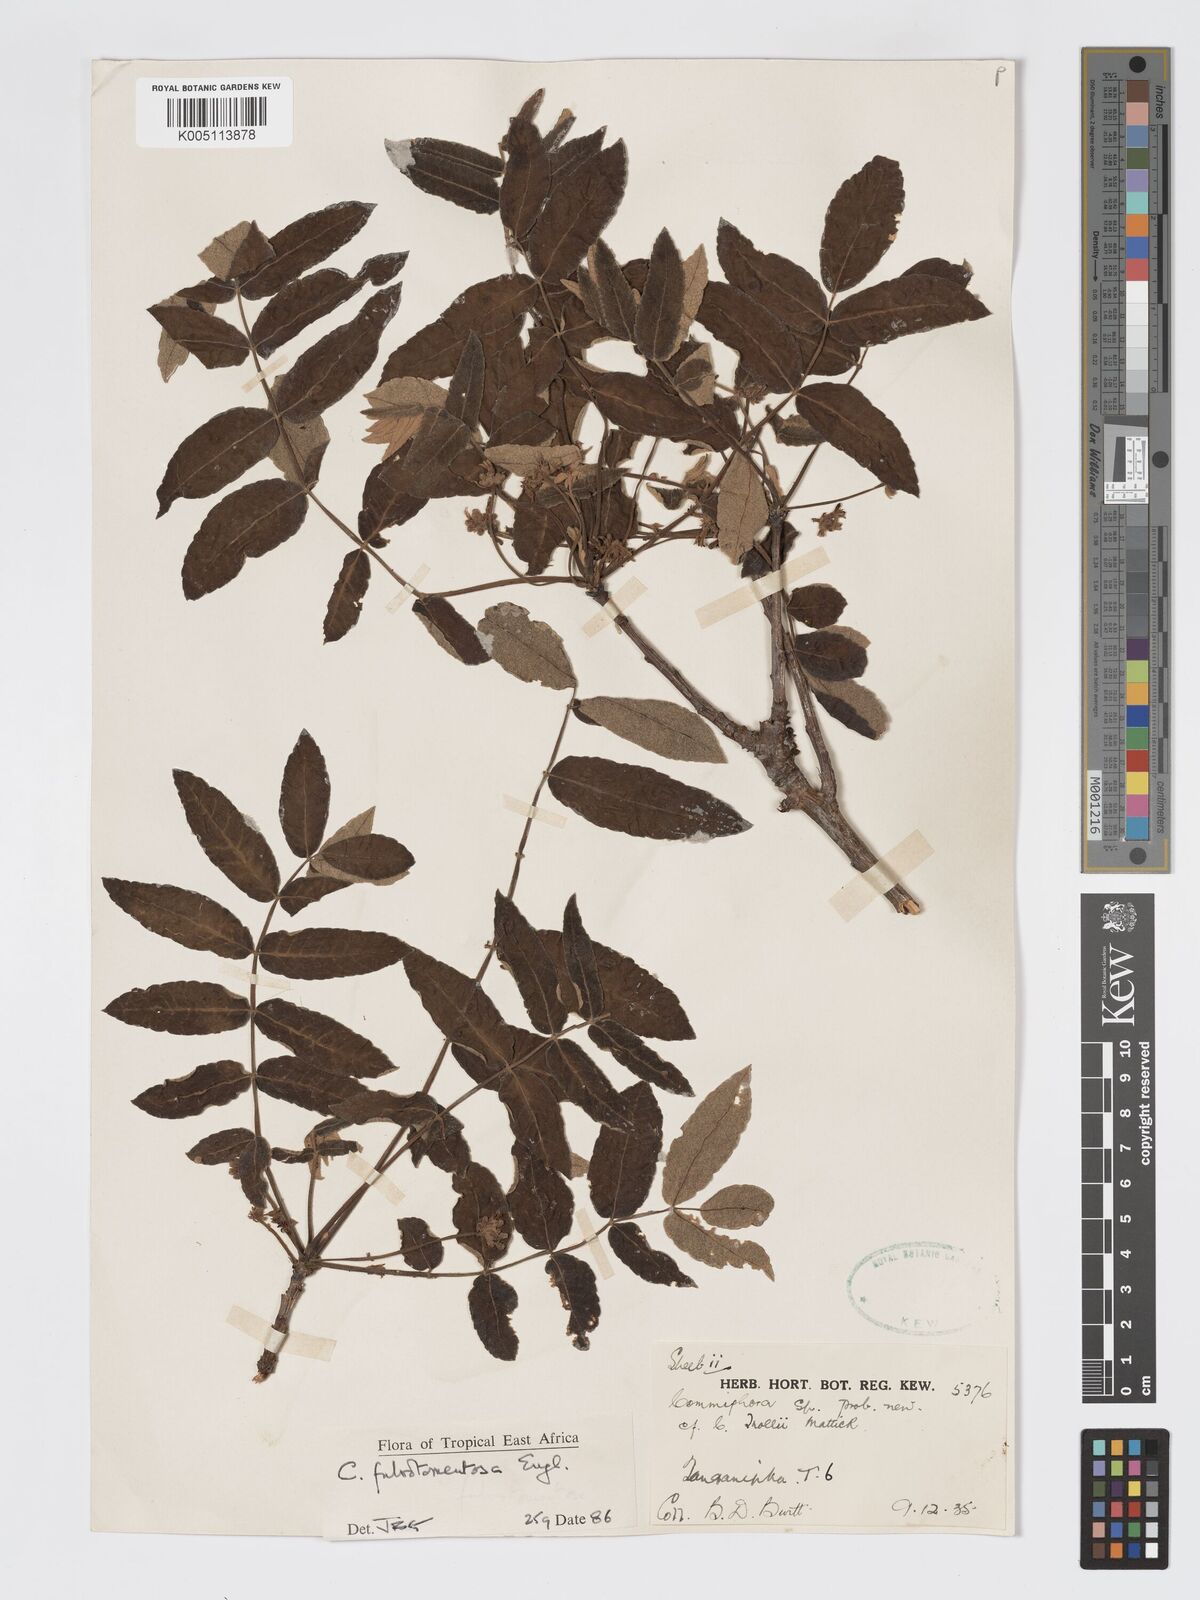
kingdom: Plantae
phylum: Tracheophyta
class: Magnoliopsida
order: Sapindales
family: Burseraceae
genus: Commiphora
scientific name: Commiphora fulvotomentosa
